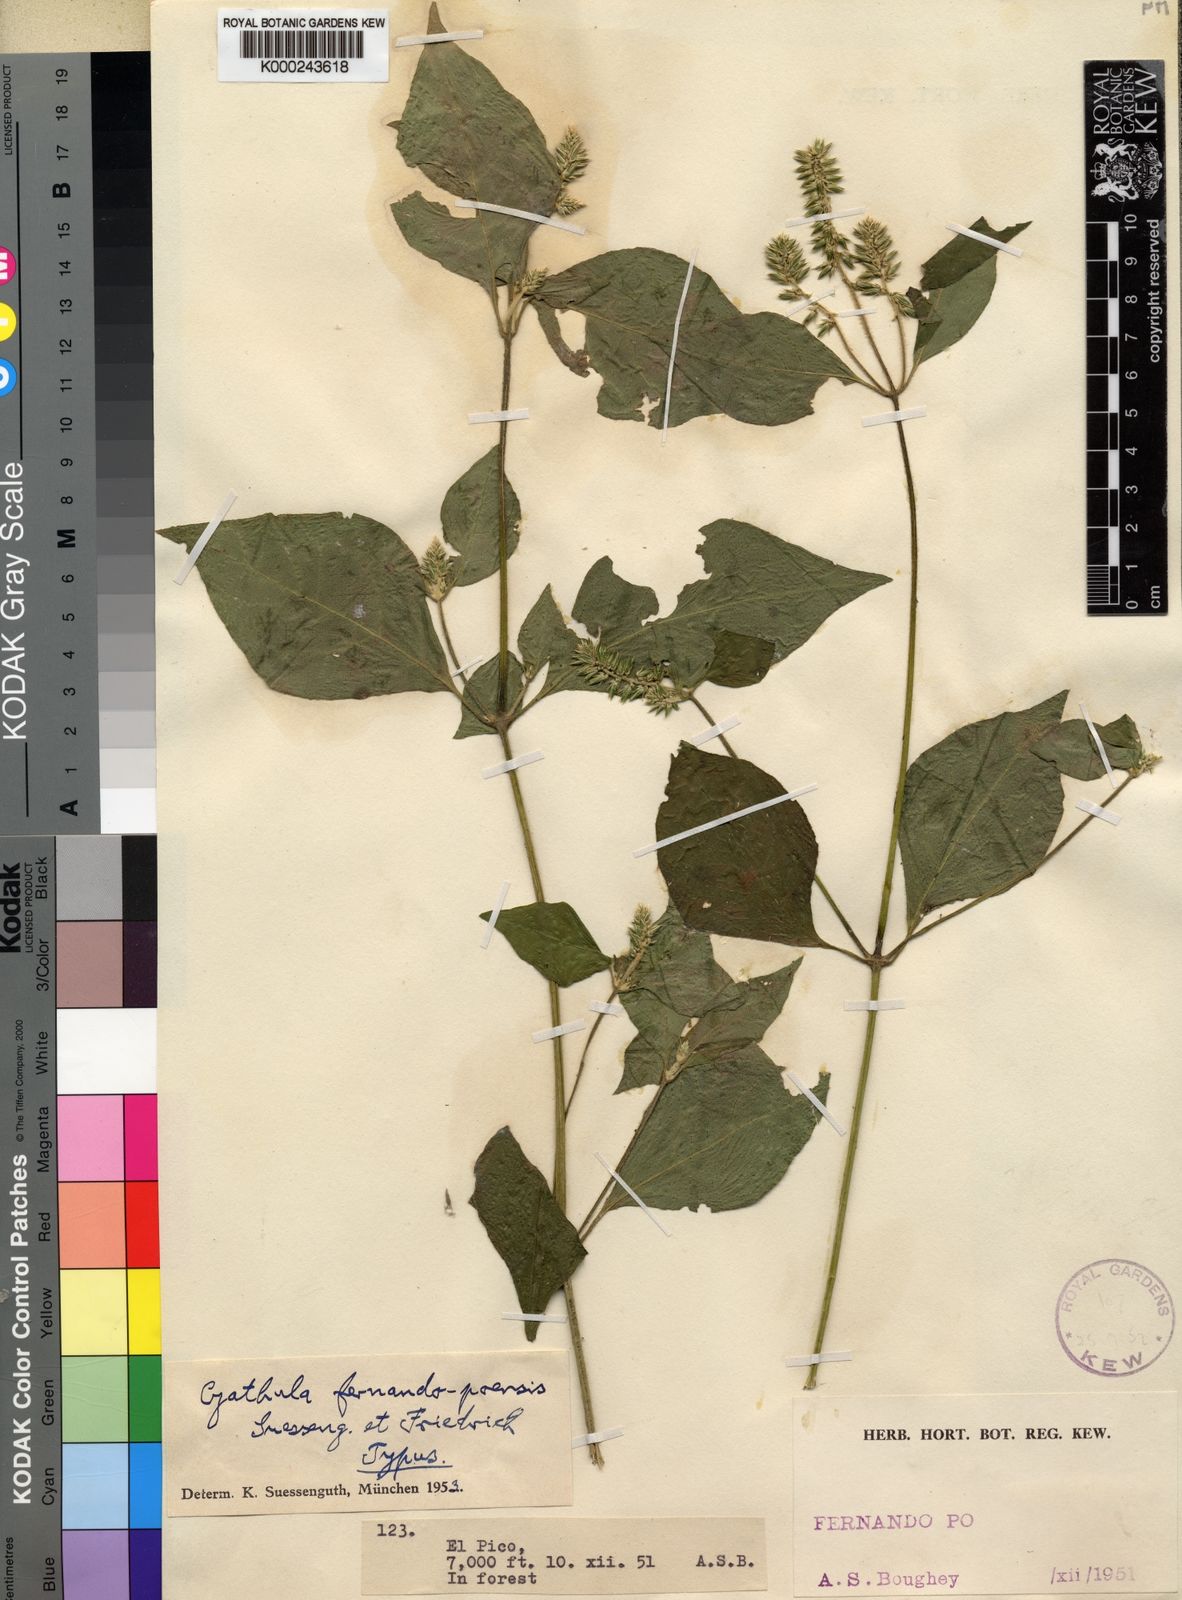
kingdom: Plantae
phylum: Tracheophyta
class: Magnoliopsida
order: Caryophyllales
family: Amaranthaceae
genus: Cyathula
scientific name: Cyathula fernando-poensis
